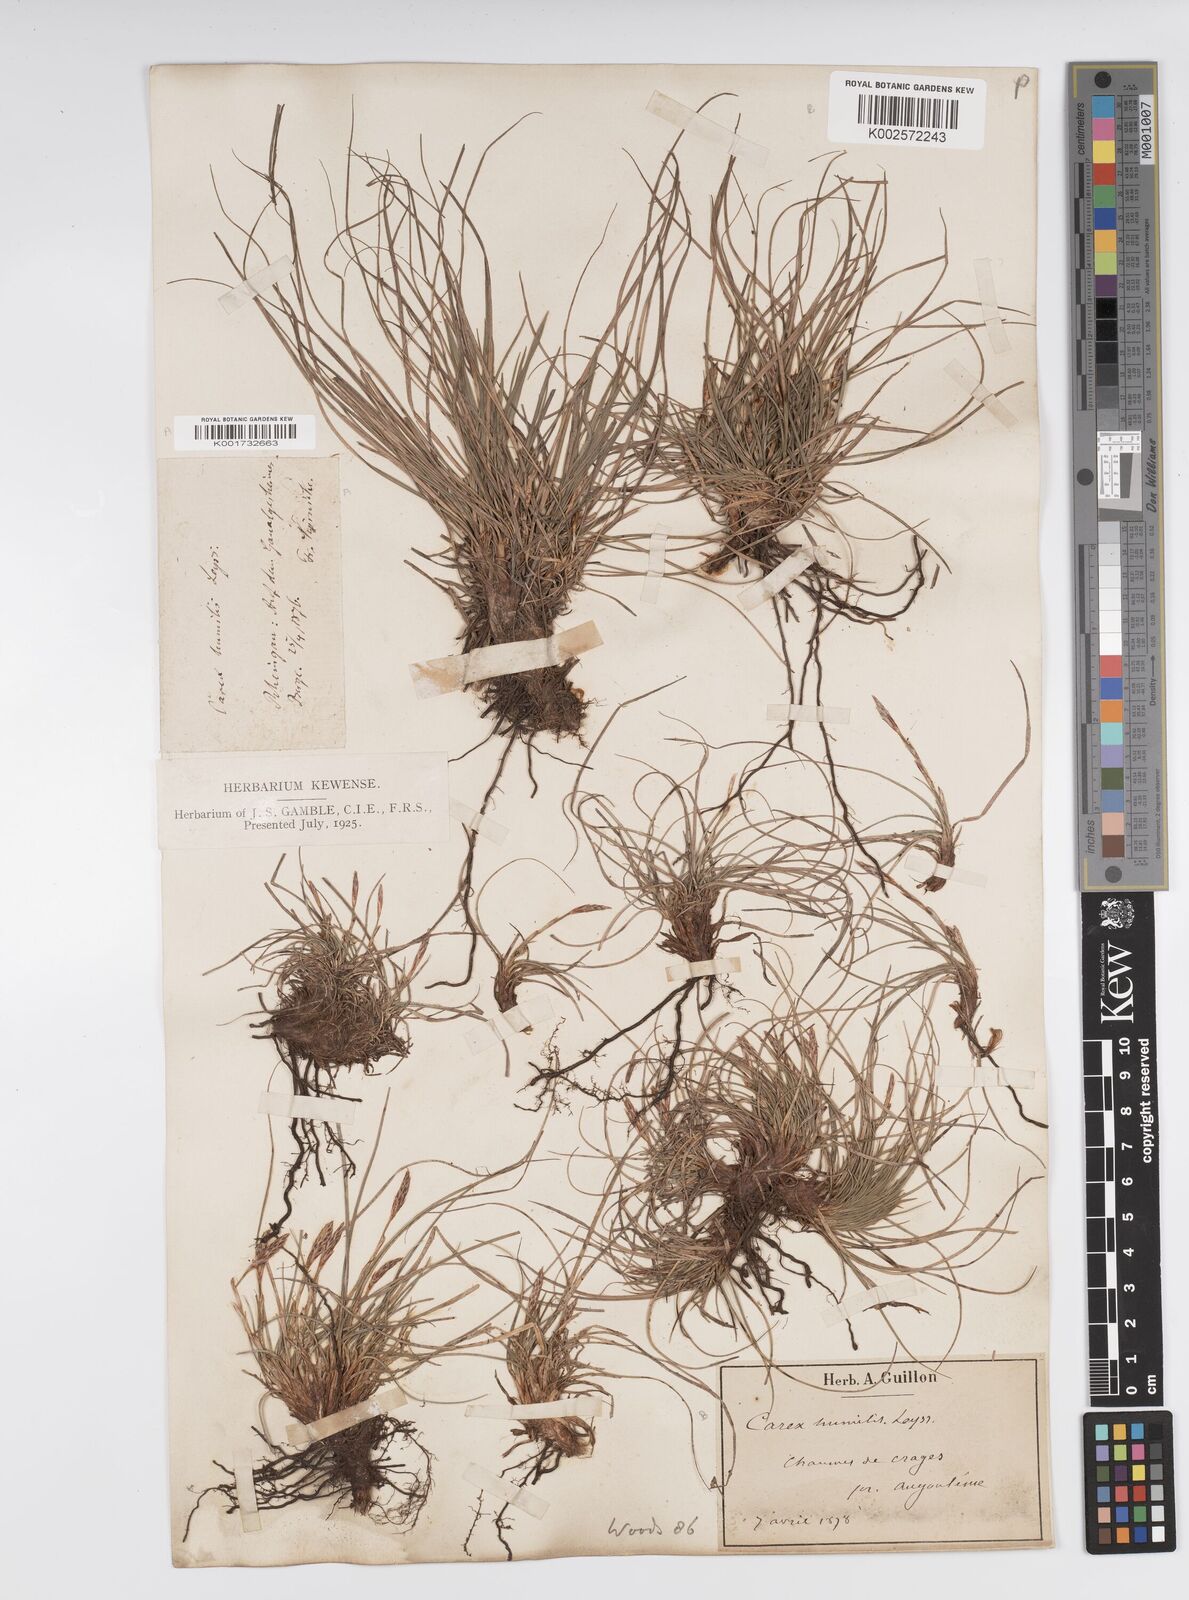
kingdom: Plantae
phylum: Tracheophyta
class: Liliopsida
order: Poales
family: Cyperaceae
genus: Carex
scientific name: Carex humilis
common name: Dwarf sedge
